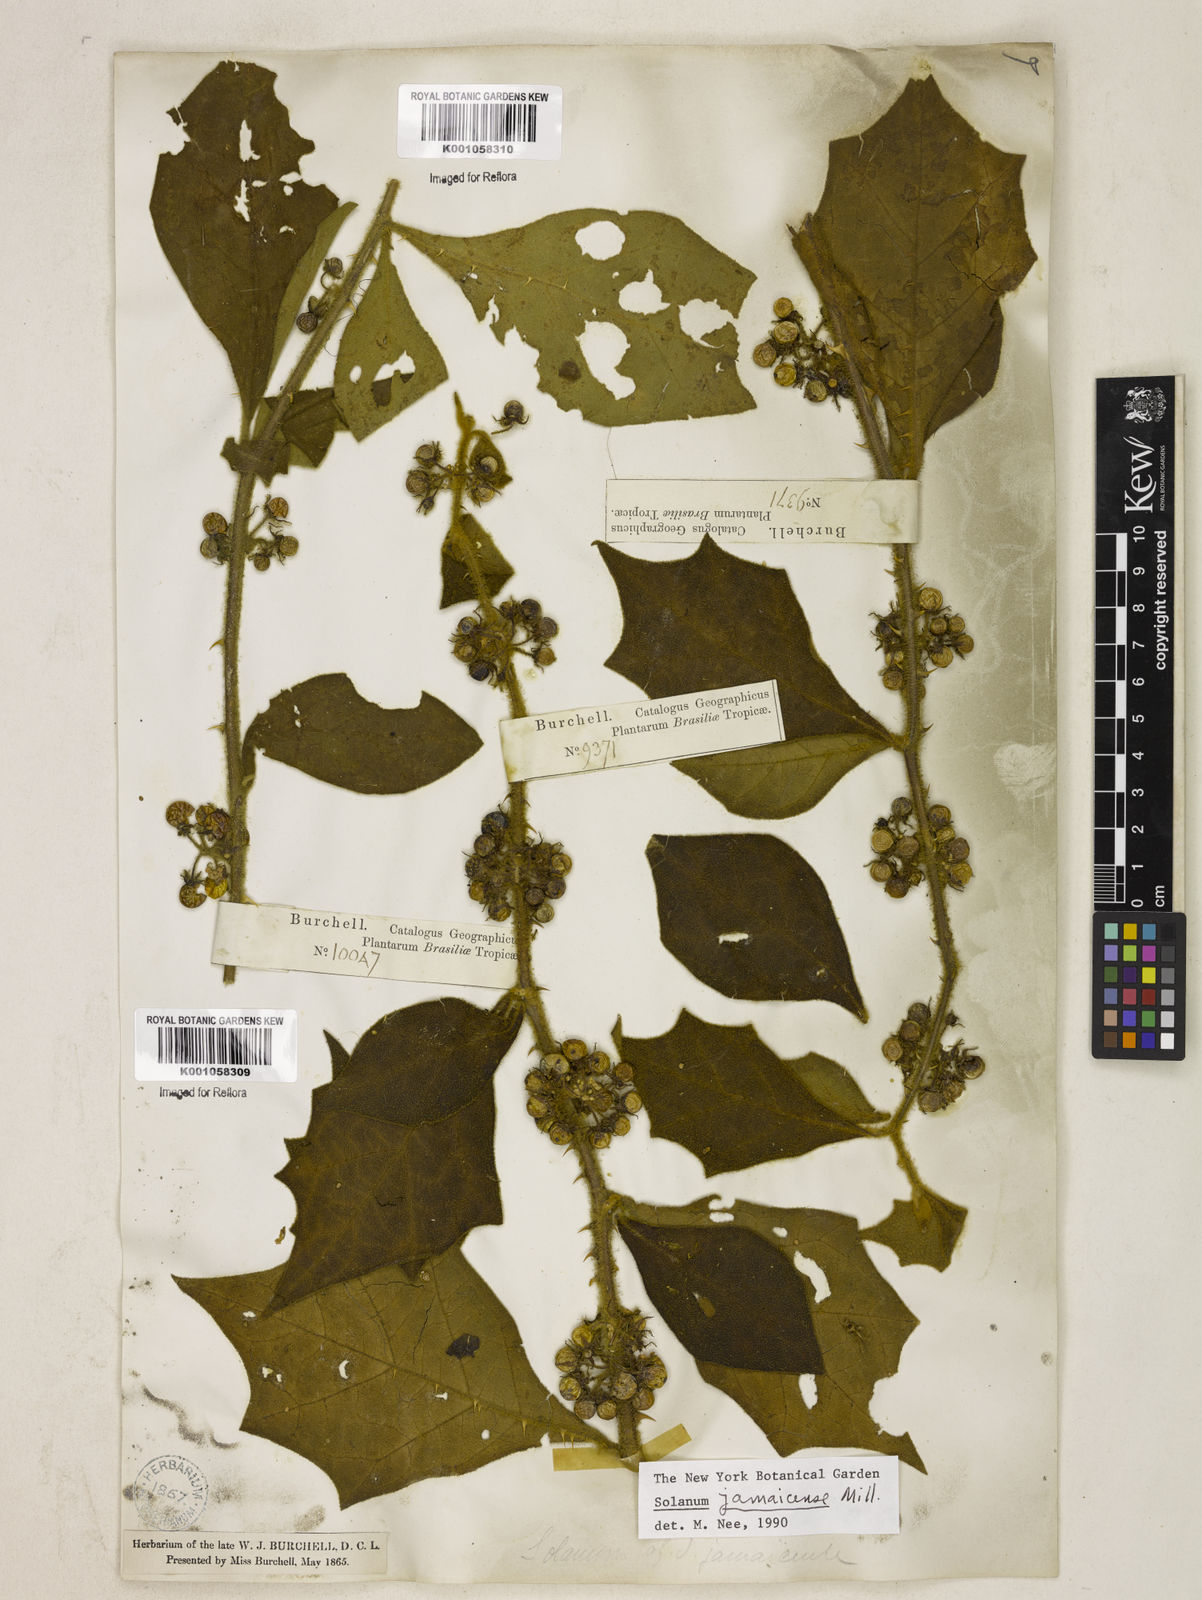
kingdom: Plantae
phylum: Tracheophyta
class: Magnoliopsida
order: Solanales
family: Solanaceae
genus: Solanum
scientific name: Solanum jamaicense
